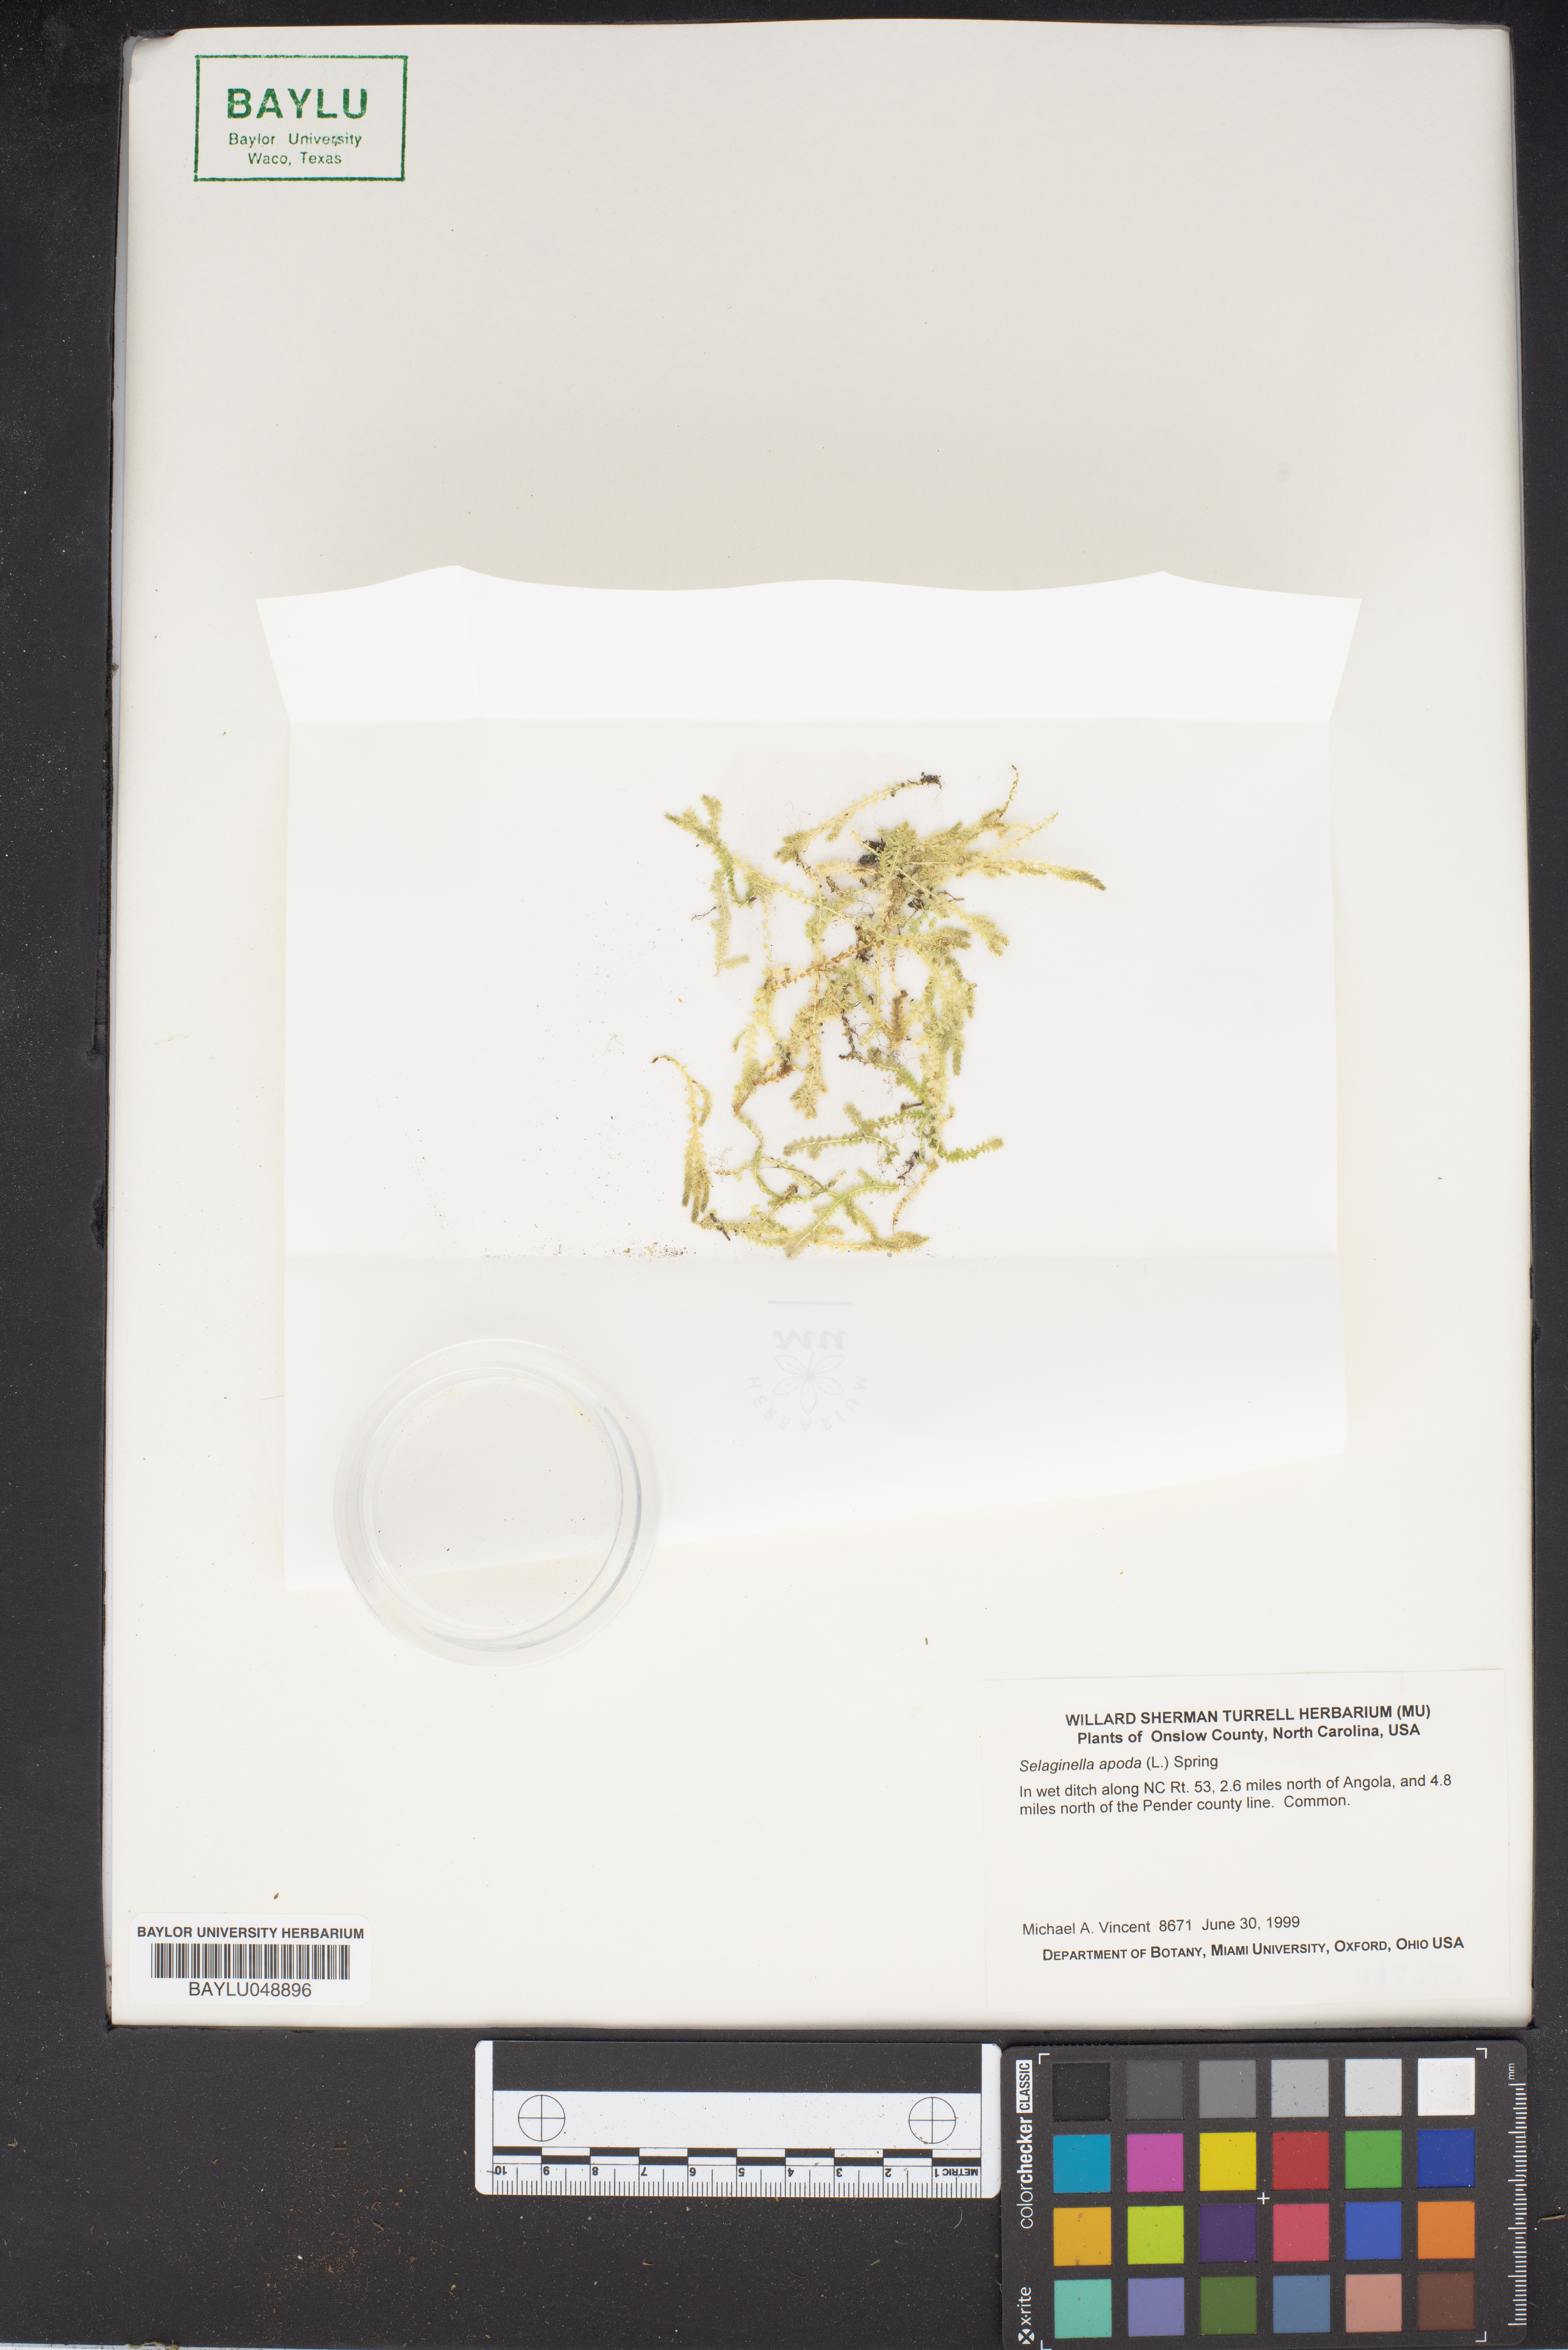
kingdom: Plantae
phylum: Tracheophyta
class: Lycopodiopsida
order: Selaginellales
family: Selaginellaceae
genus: Selaginella
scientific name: Selaginella apoda
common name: Creeping spikemoss
